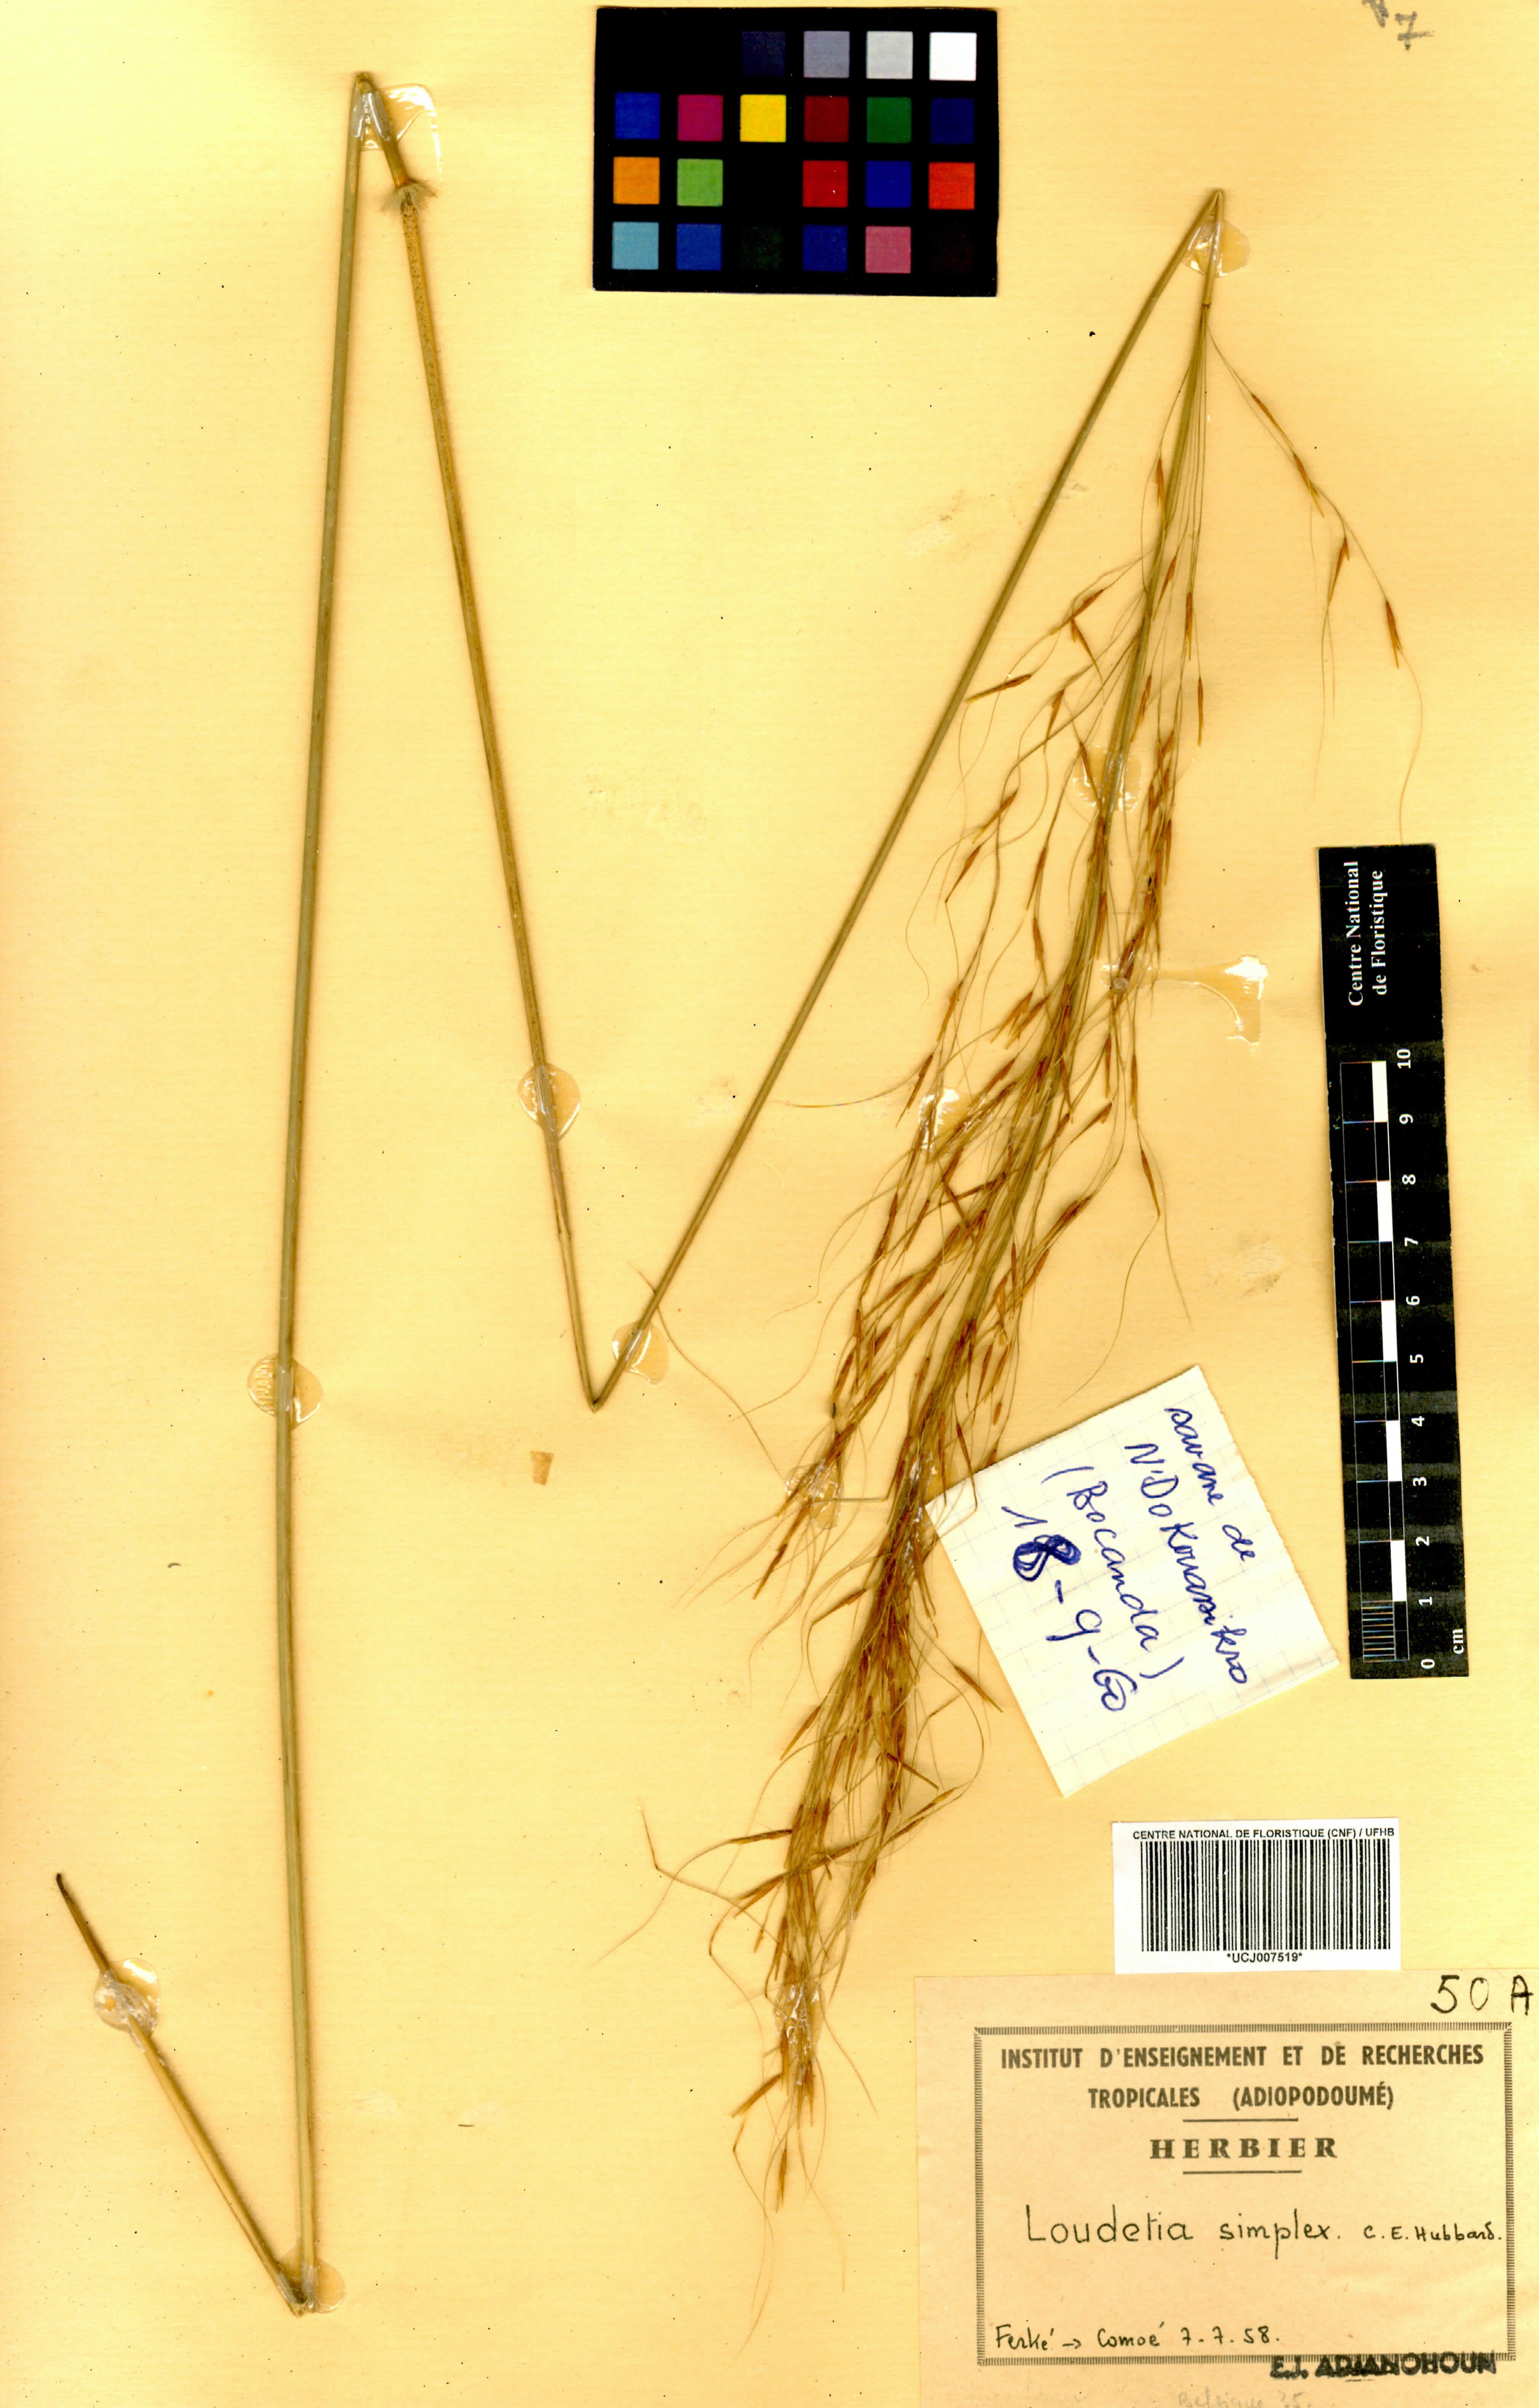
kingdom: Plantae
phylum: Tracheophyta
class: Liliopsida
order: Poales
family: Poaceae
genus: Loudetia
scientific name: Loudetia simplex
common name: Common russet grass
